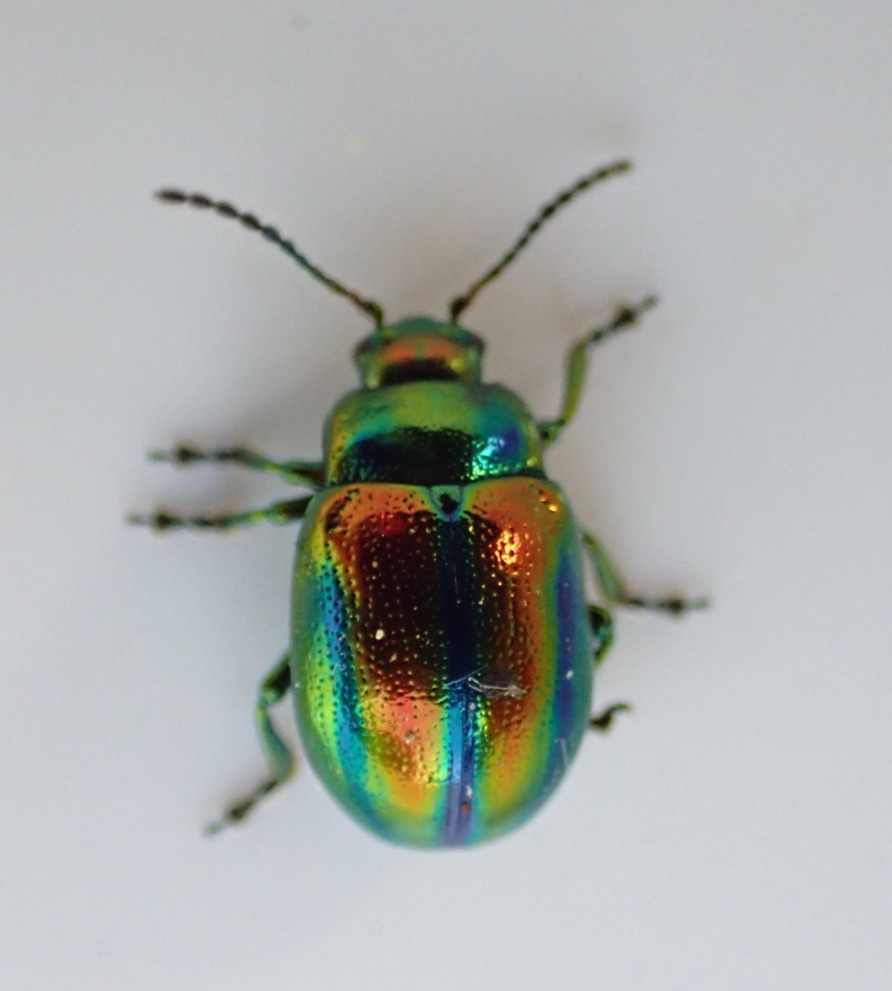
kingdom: Animalia
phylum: Arthropoda
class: Insecta
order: Coleoptera
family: Chrysomelidae
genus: Chrysolina
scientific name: Chrysolina fastuosa
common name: Tvetandbladbille
